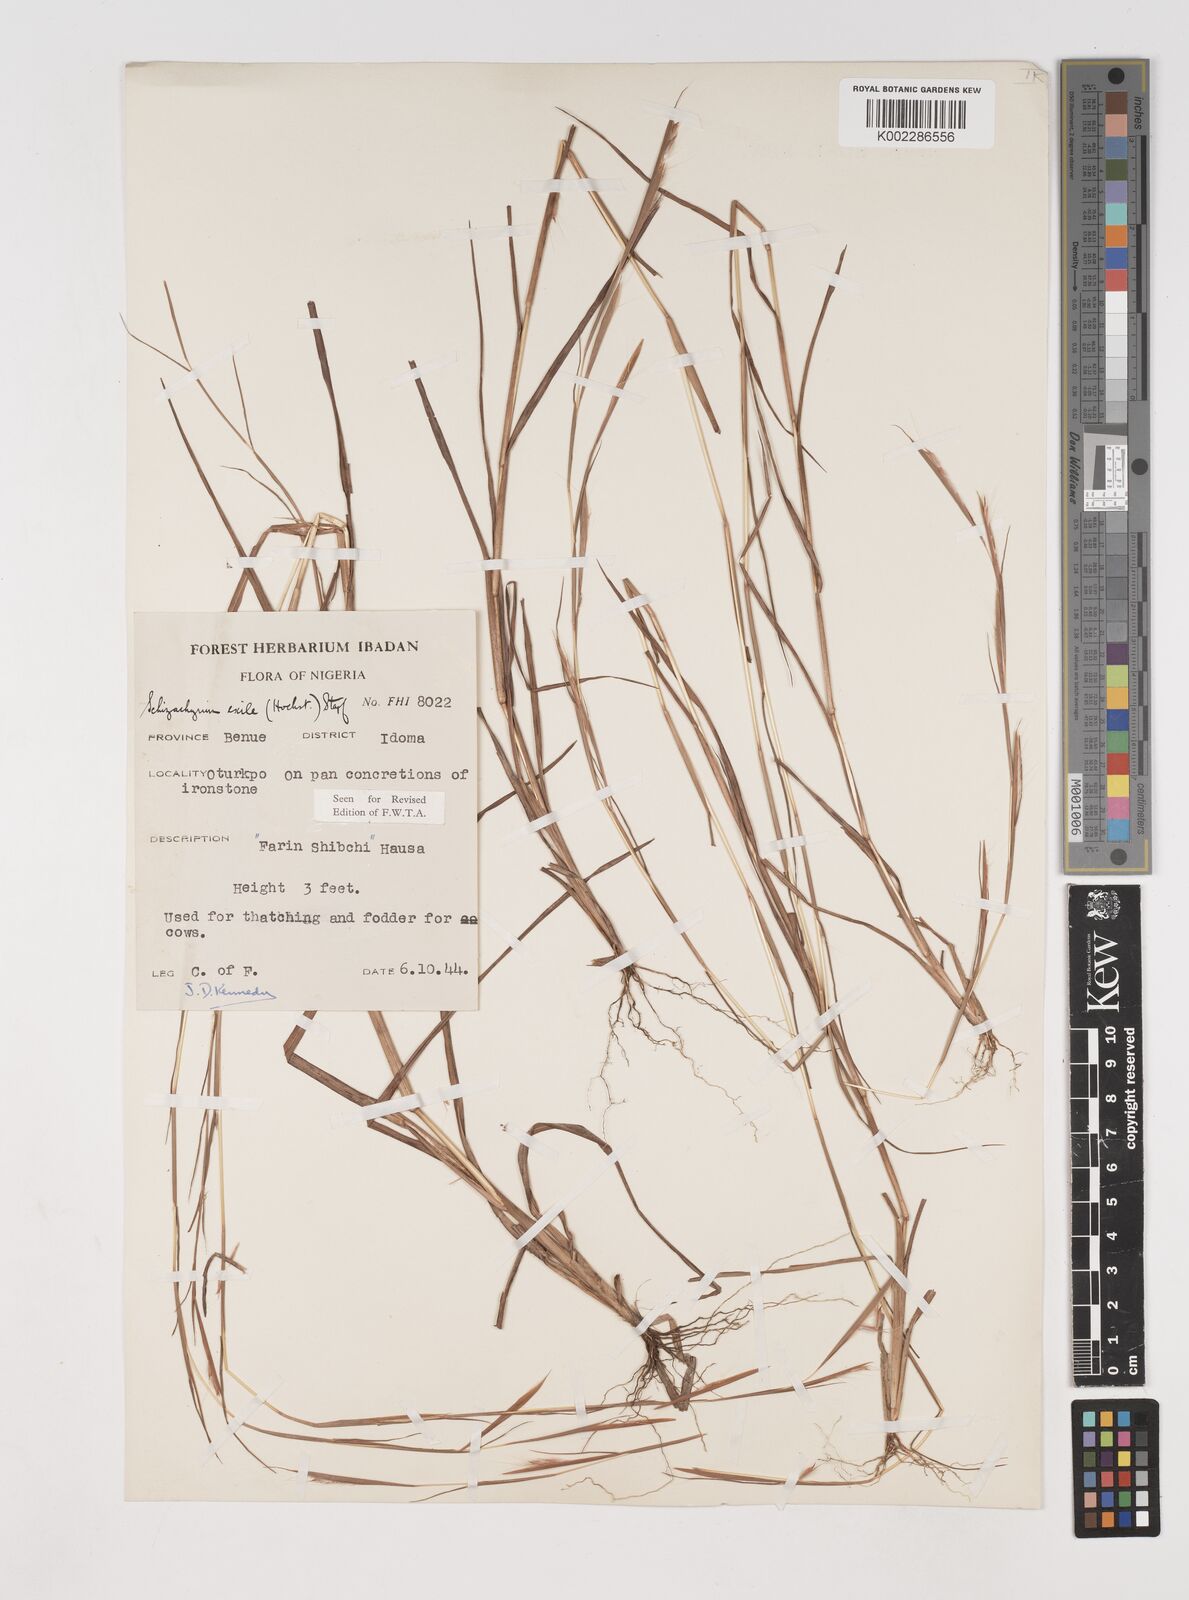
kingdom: Plantae
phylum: Tracheophyta
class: Liliopsida
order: Poales
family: Poaceae
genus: Schizachyrium
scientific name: Schizachyrium exile
